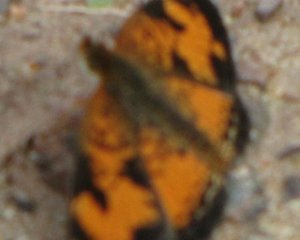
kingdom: Animalia
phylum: Arthropoda
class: Insecta
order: Lepidoptera
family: Nymphalidae
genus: Phyciodes
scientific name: Phyciodes tharos
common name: Northern Crescent
